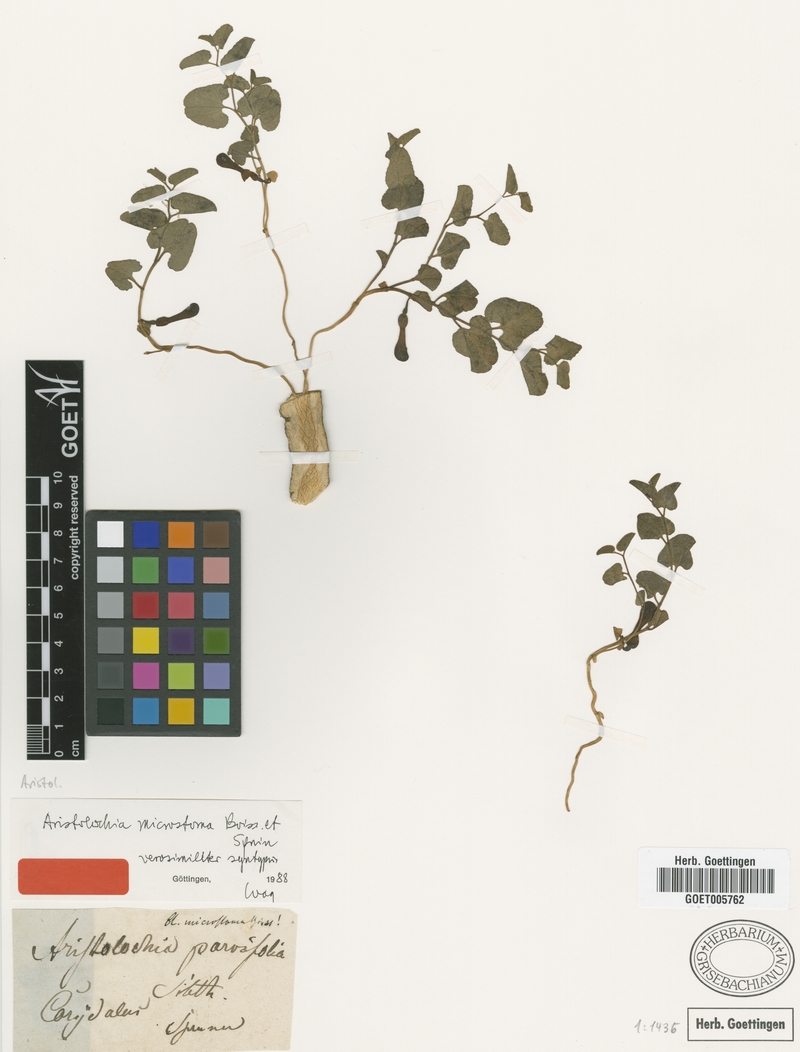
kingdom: Plantae
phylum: Tracheophyta
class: Magnoliopsida
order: Piperales
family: Aristolochiaceae
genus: Aristolochia
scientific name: Aristolochia microstoma
